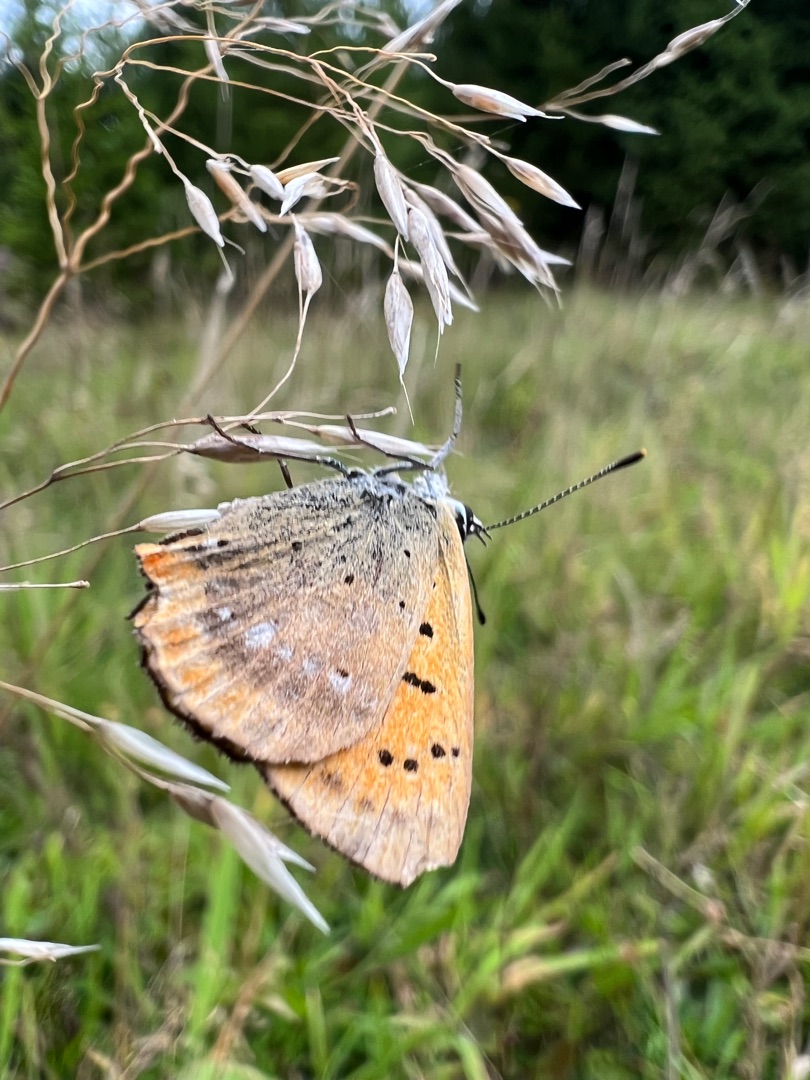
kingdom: Animalia
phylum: Arthropoda
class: Insecta
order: Lepidoptera
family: Lycaenidae
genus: Lycaena
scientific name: Lycaena virgaureae
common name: Dukatsommerfugl
